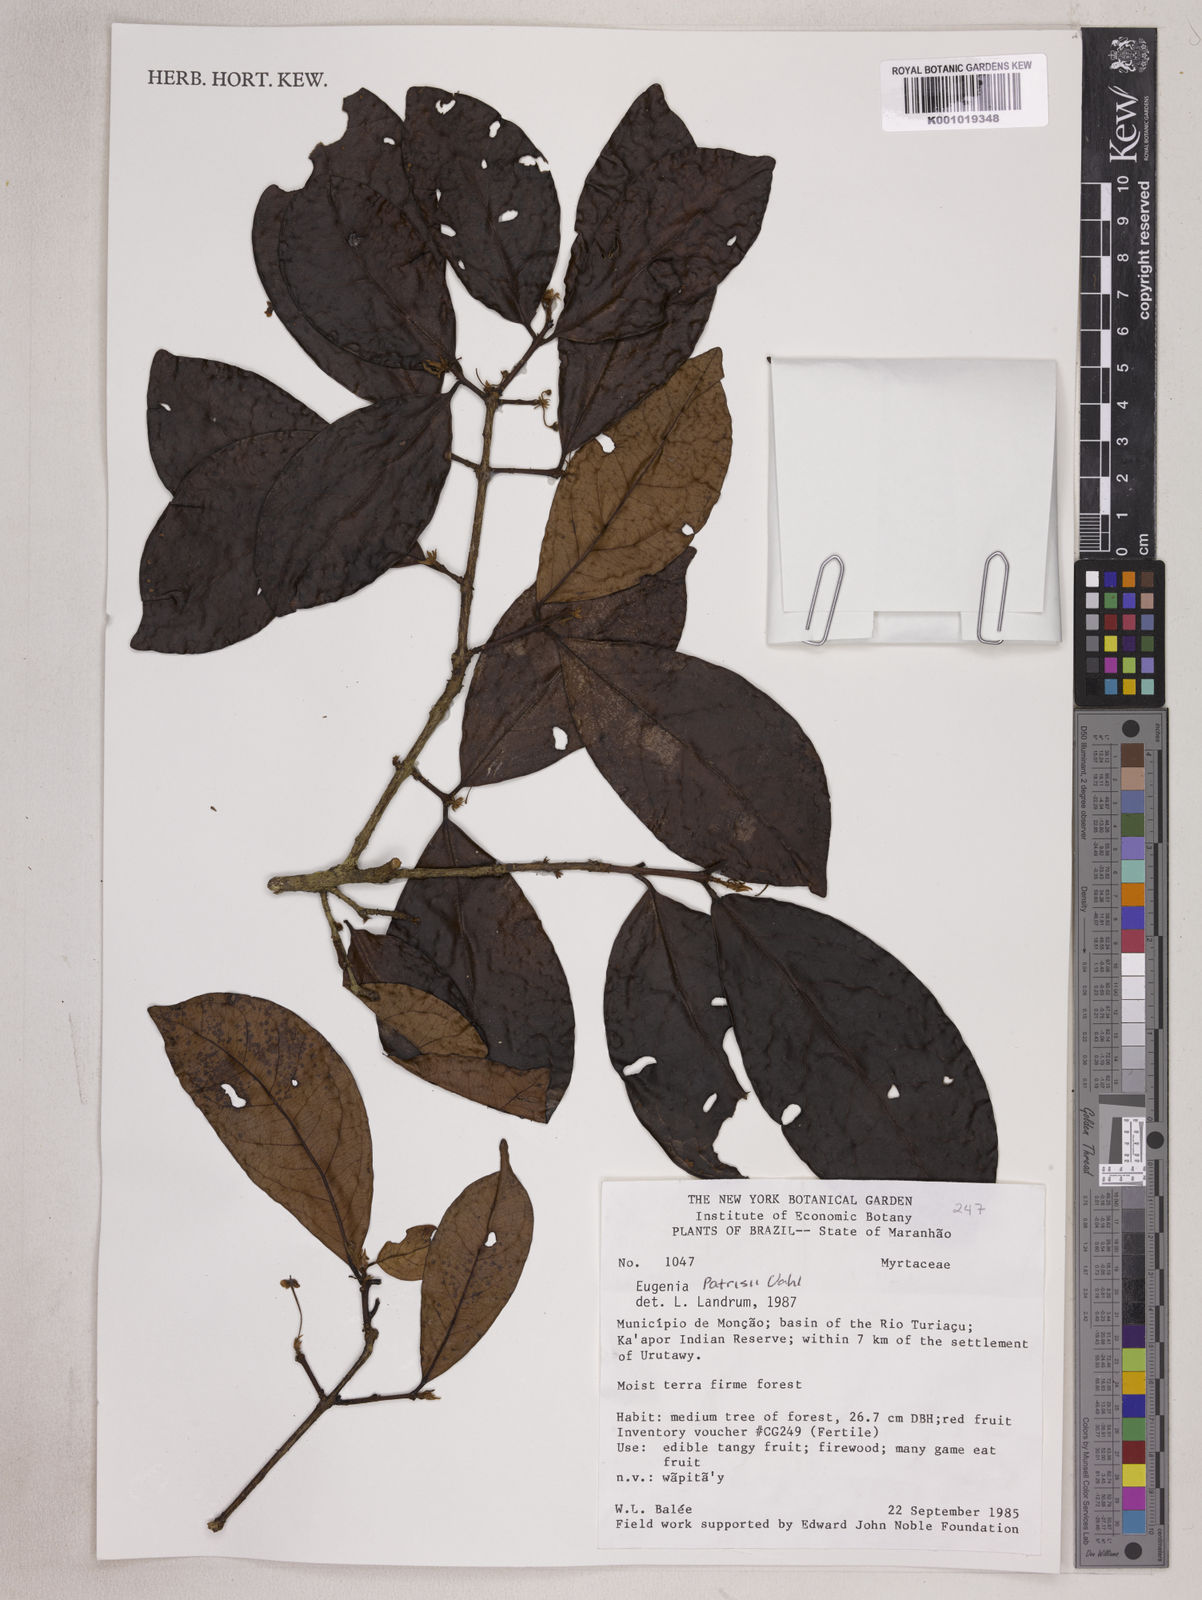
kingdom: Plantae
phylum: Tracheophyta
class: Magnoliopsida
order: Myrtales
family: Myrtaceae
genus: Eugenia
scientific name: Eugenia patrisii
